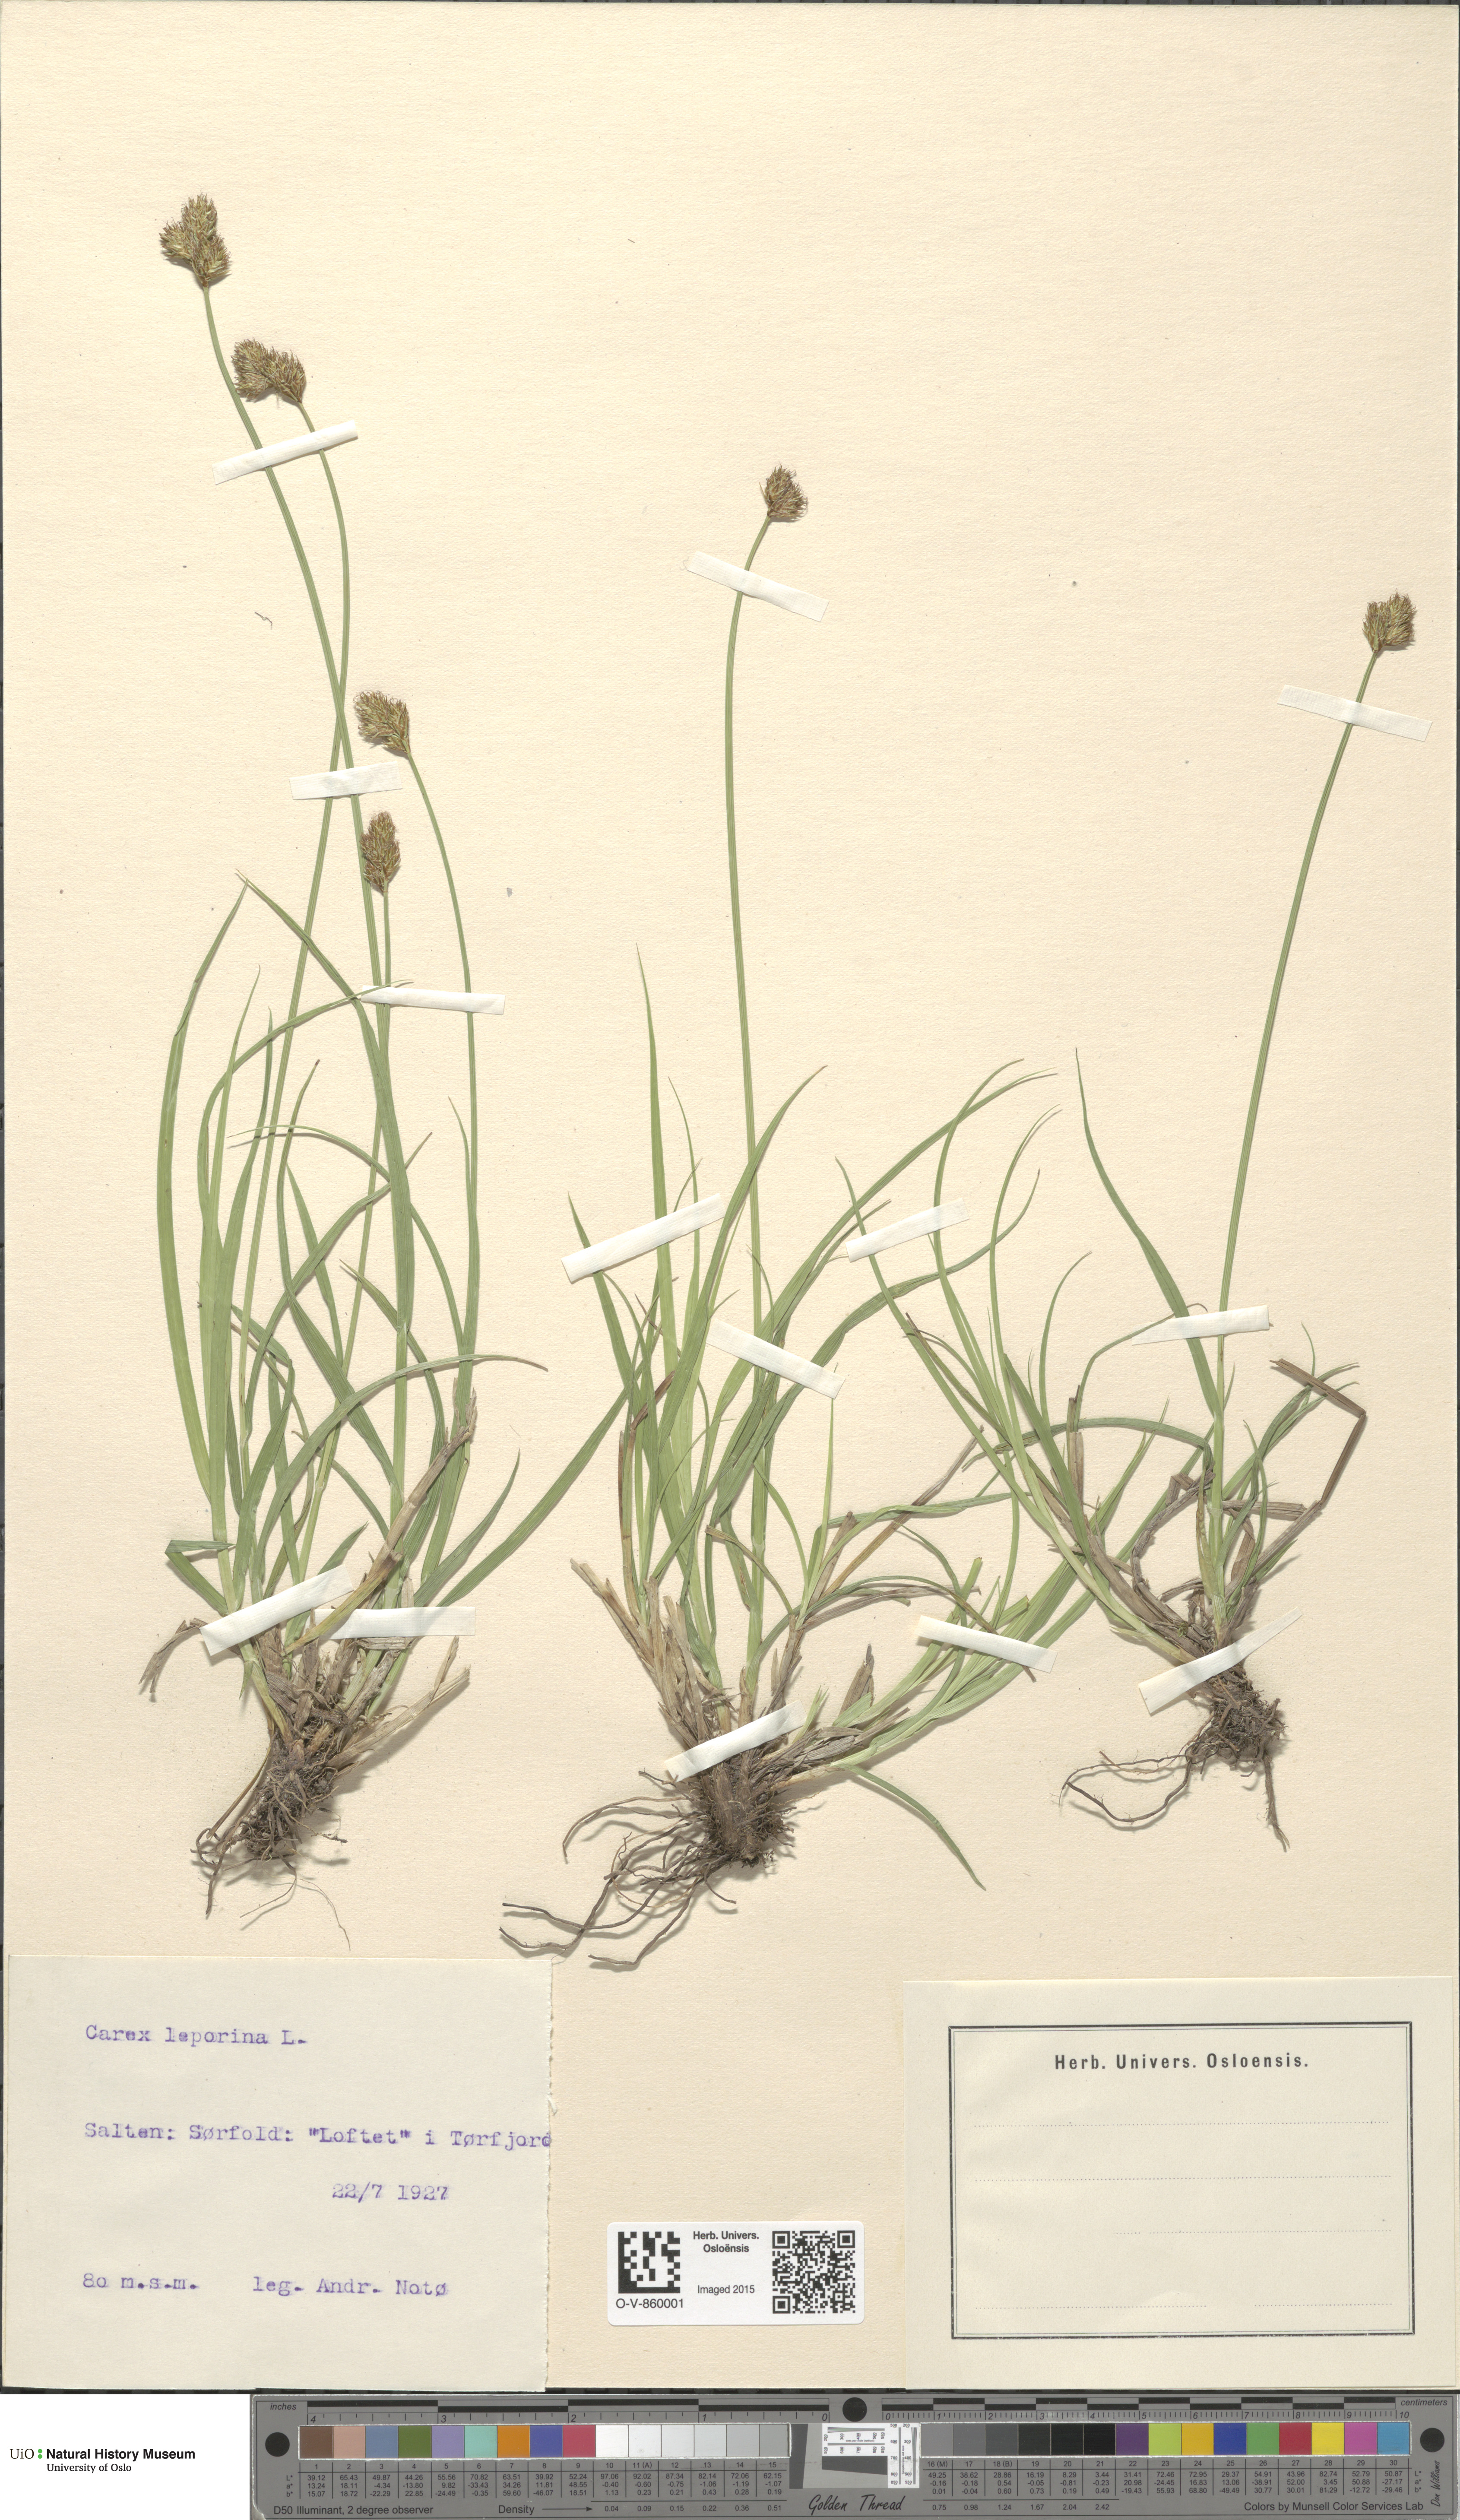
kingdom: Plantae
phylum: Tracheophyta
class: Liliopsida
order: Poales
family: Cyperaceae
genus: Carex
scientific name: Carex leporina
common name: Oval sedge
